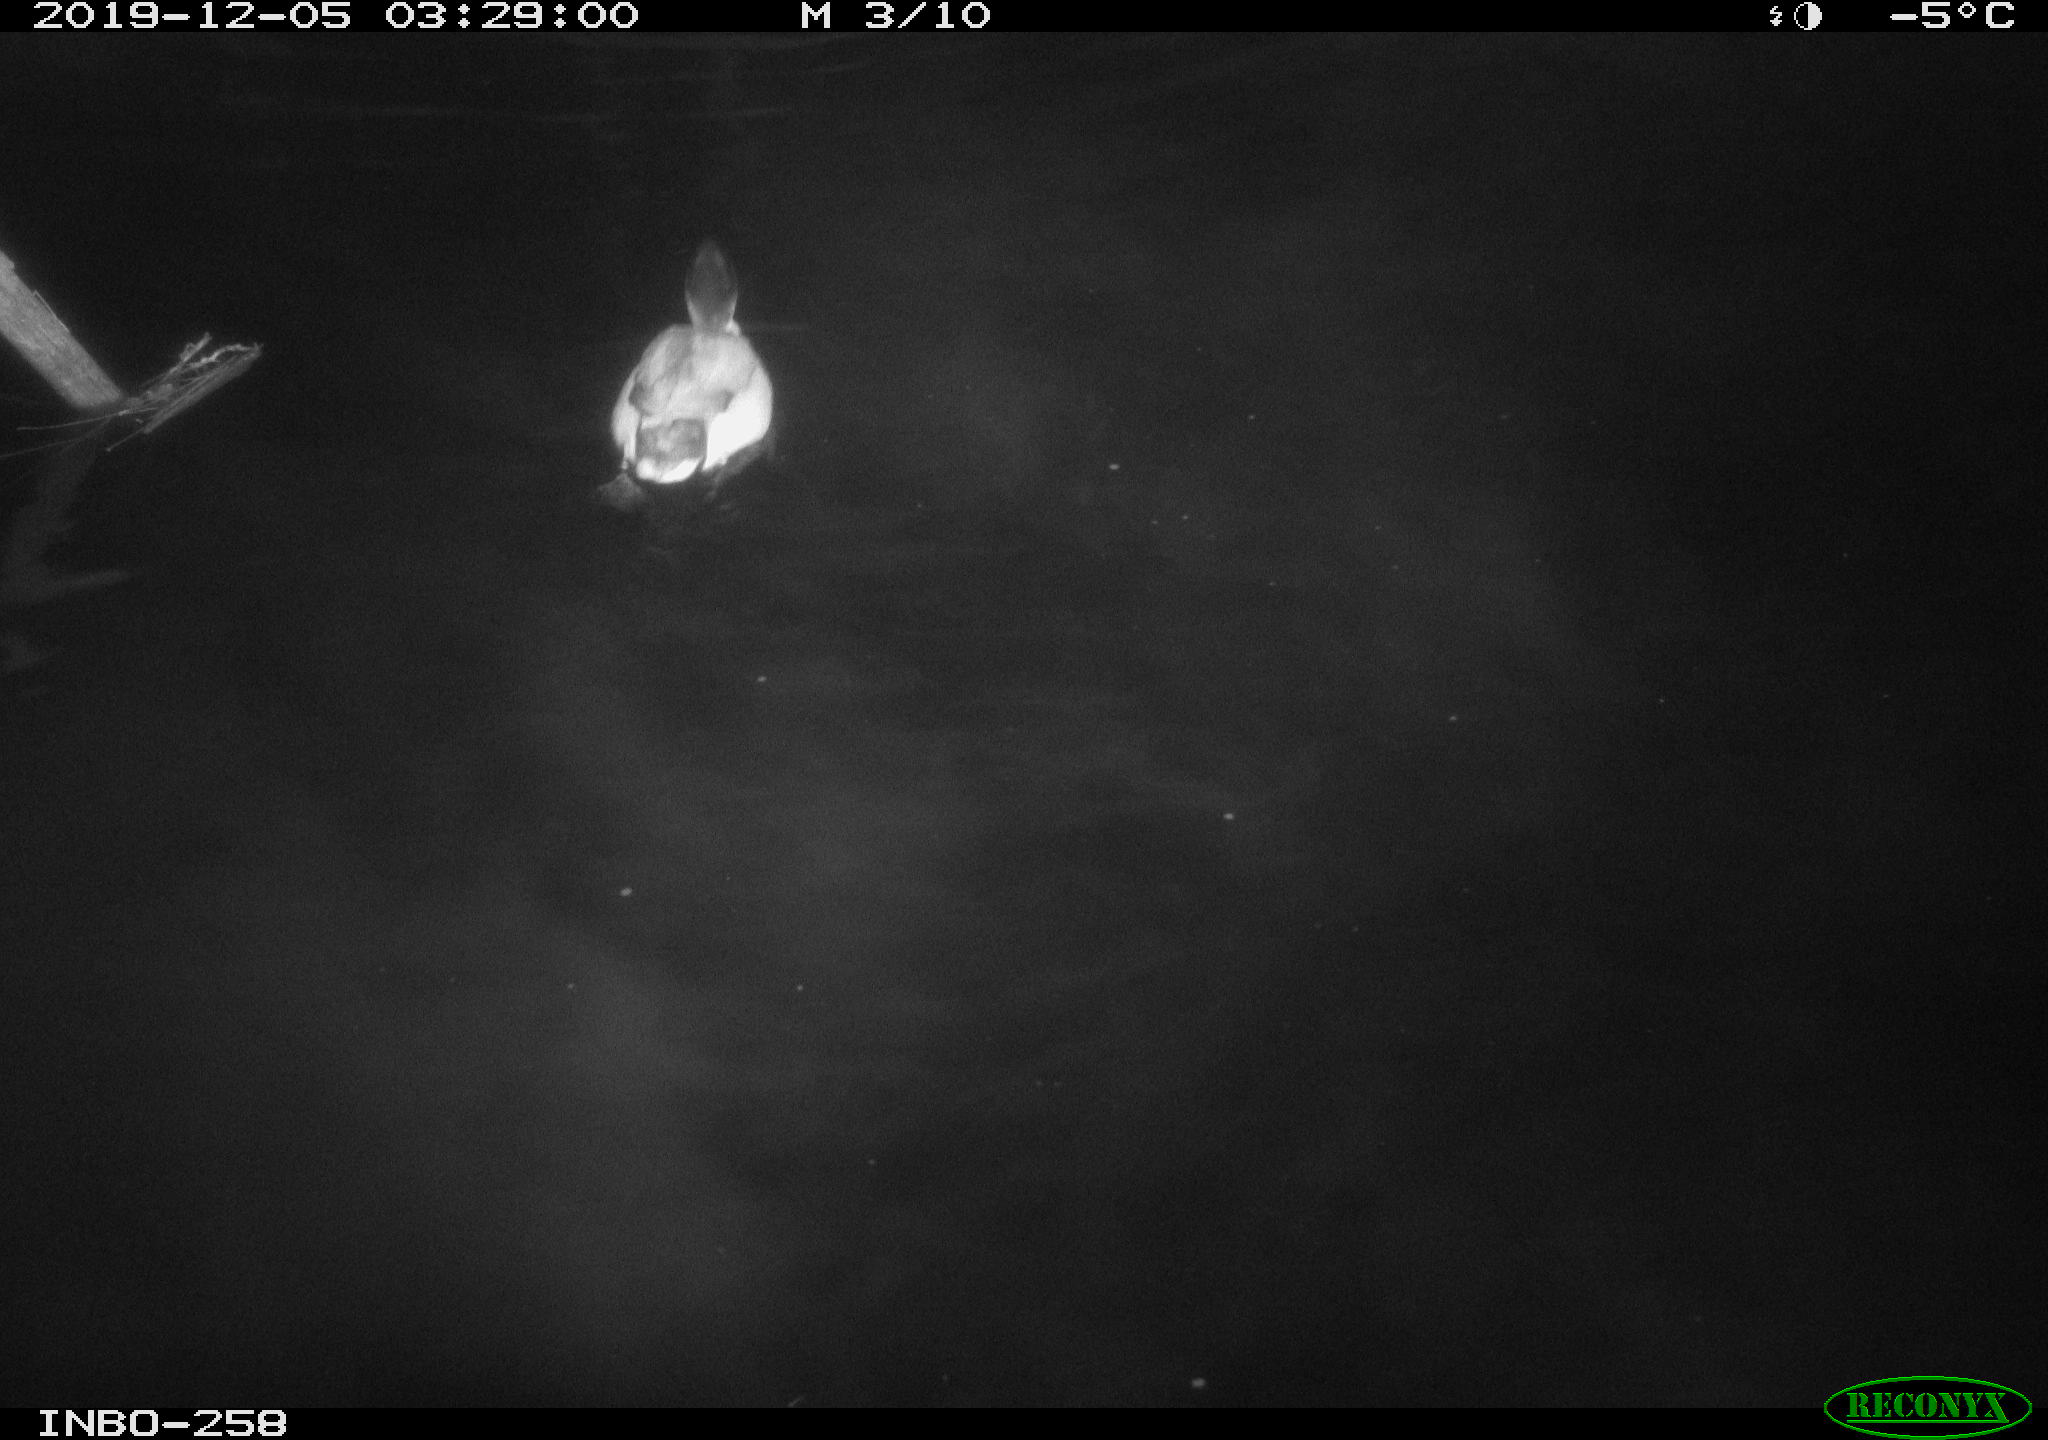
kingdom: Animalia
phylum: Chordata
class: Aves
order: Anseriformes
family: Anatidae
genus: Anas
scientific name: Anas platyrhynchos
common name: Mallard
